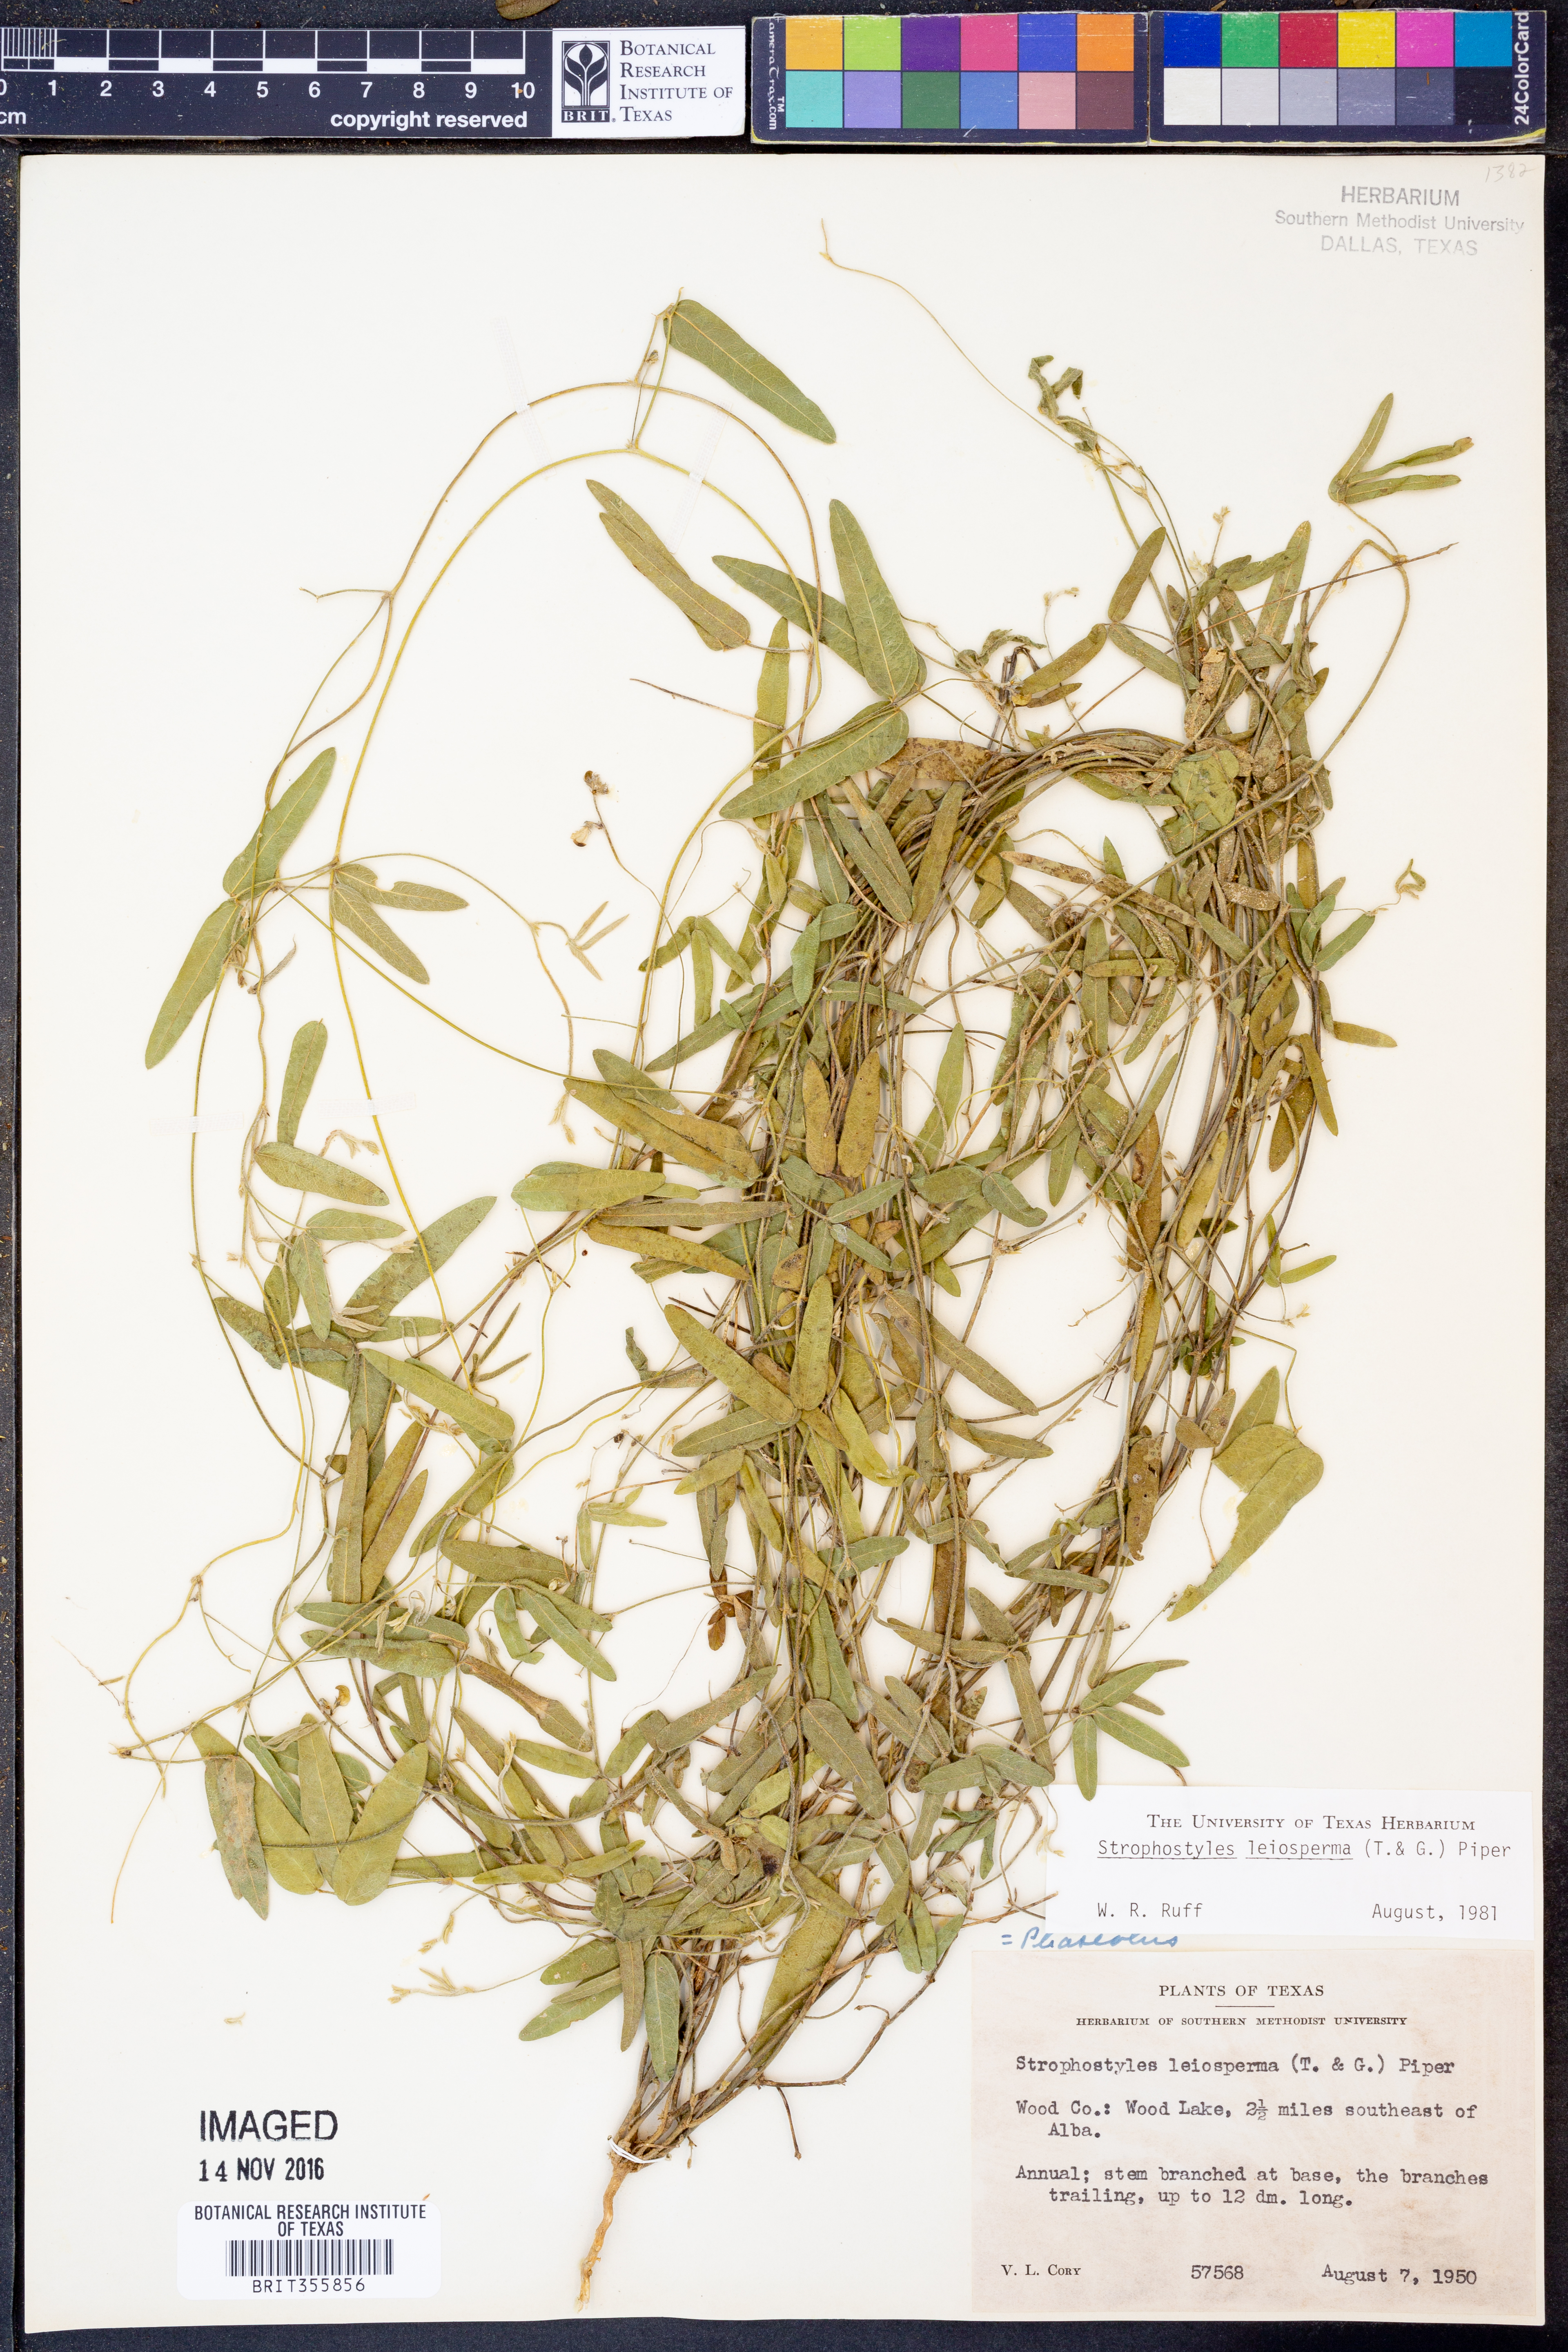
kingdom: Plantae
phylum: Tracheophyta
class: Magnoliopsida
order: Fabales
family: Fabaceae
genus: Strophostyles
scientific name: Strophostyles leiosperma
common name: Smooth-seed wild bean
